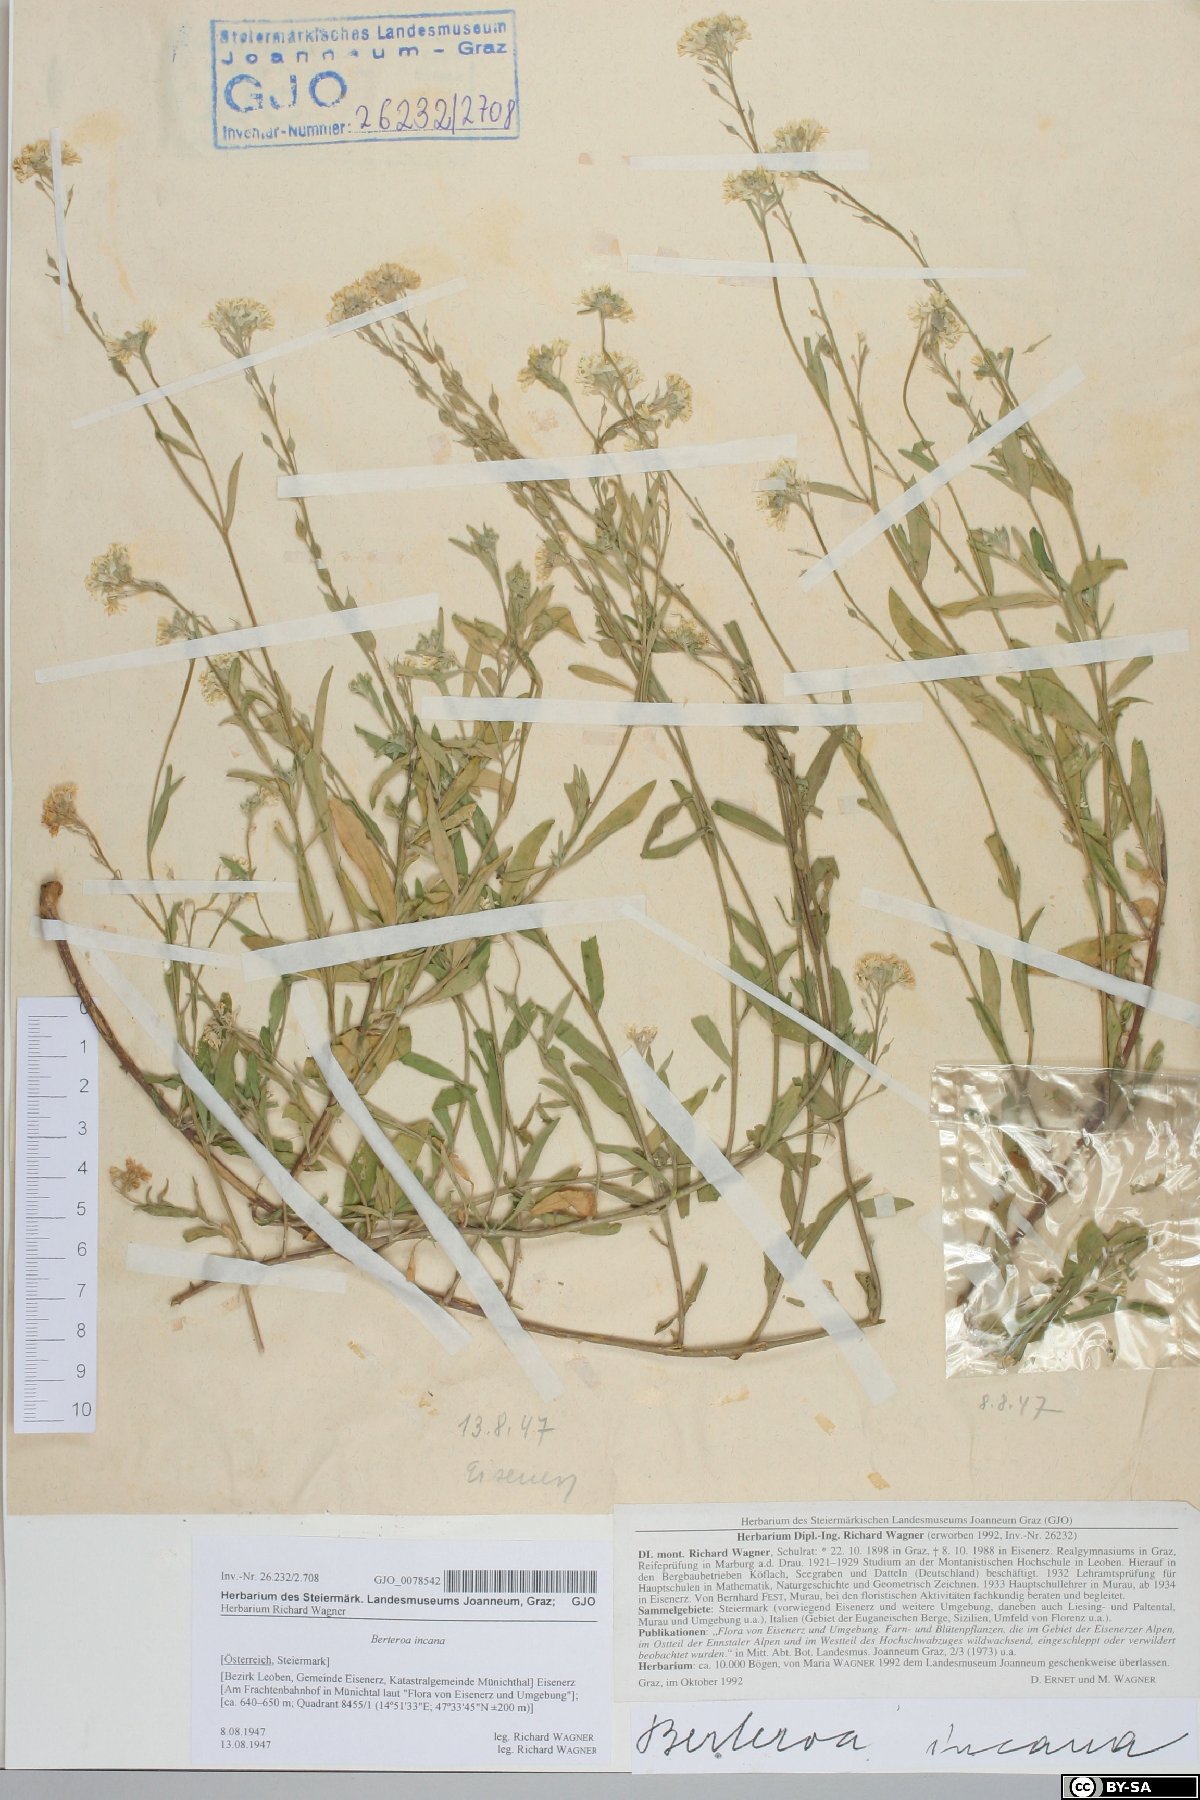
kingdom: Plantae
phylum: Tracheophyta
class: Magnoliopsida
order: Brassicales
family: Brassicaceae
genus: Berteroa
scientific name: Berteroa incana
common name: Hoary alison
